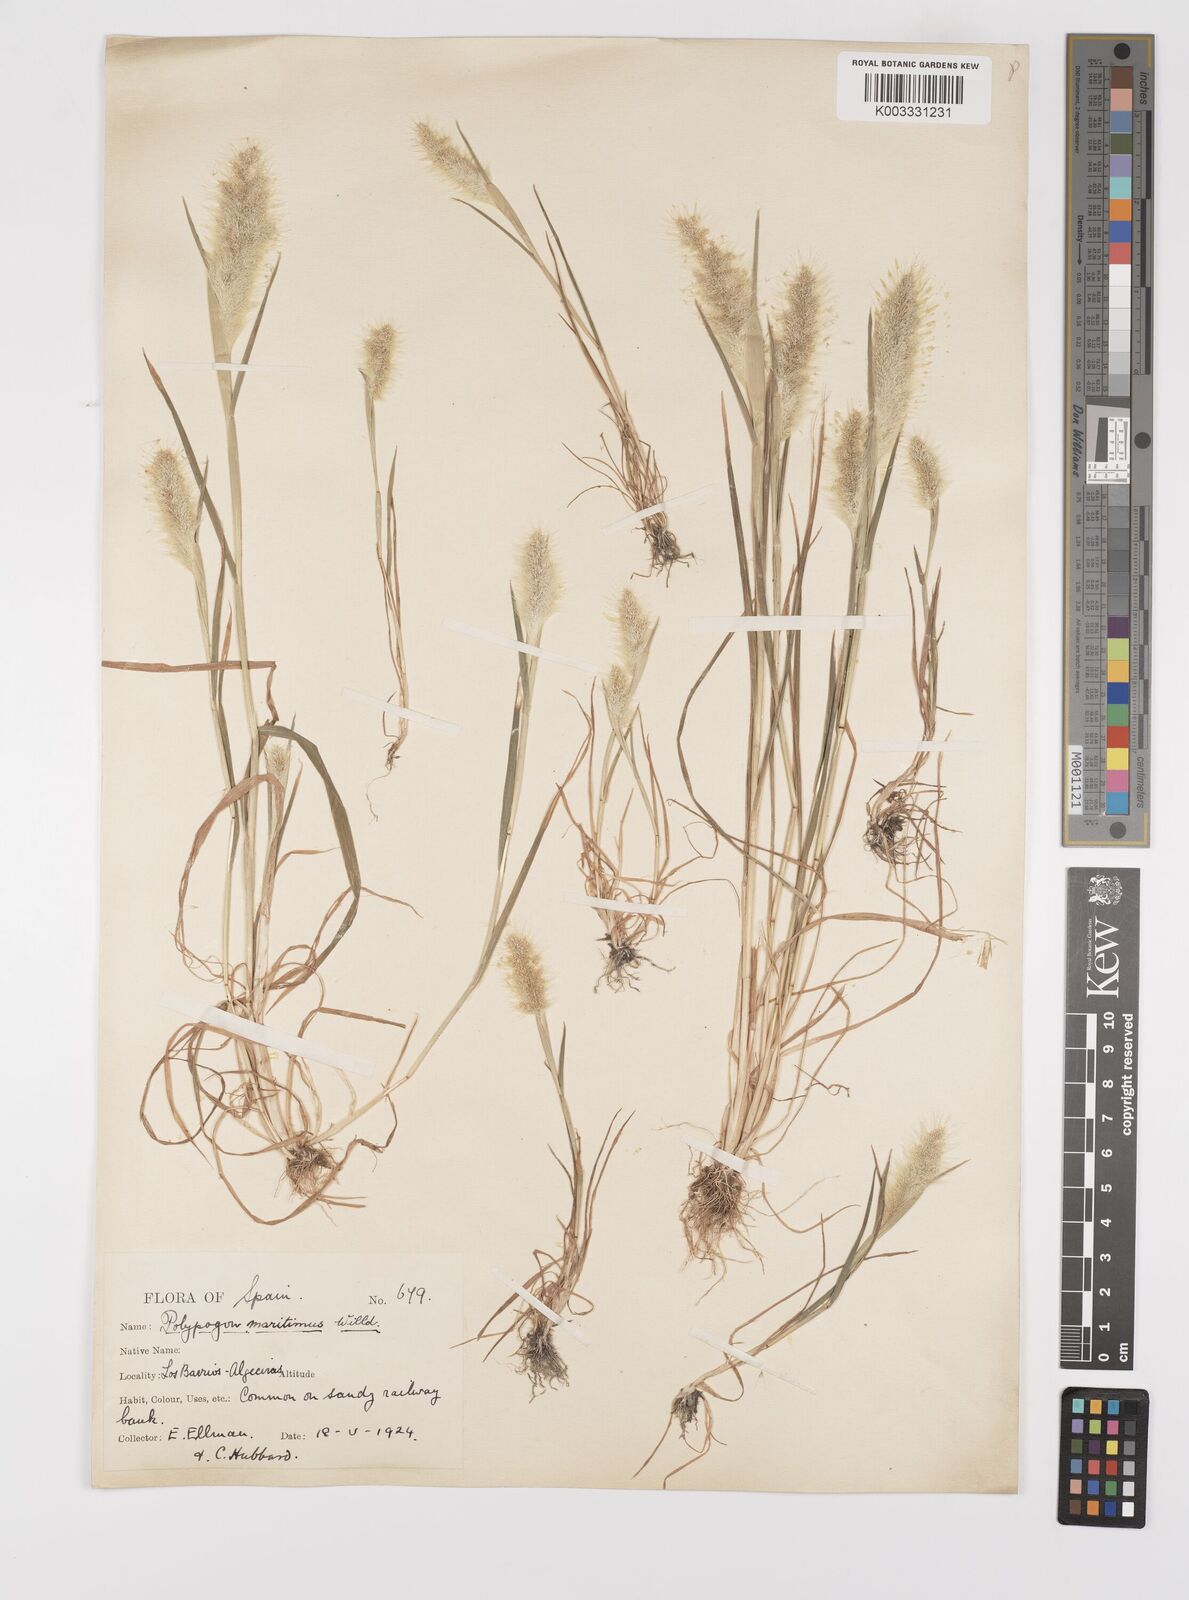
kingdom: Plantae
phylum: Tracheophyta
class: Liliopsida
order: Poales
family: Poaceae
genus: Polypogon
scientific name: Polypogon maritimus
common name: Mediterranean rabbitsfoot grass
